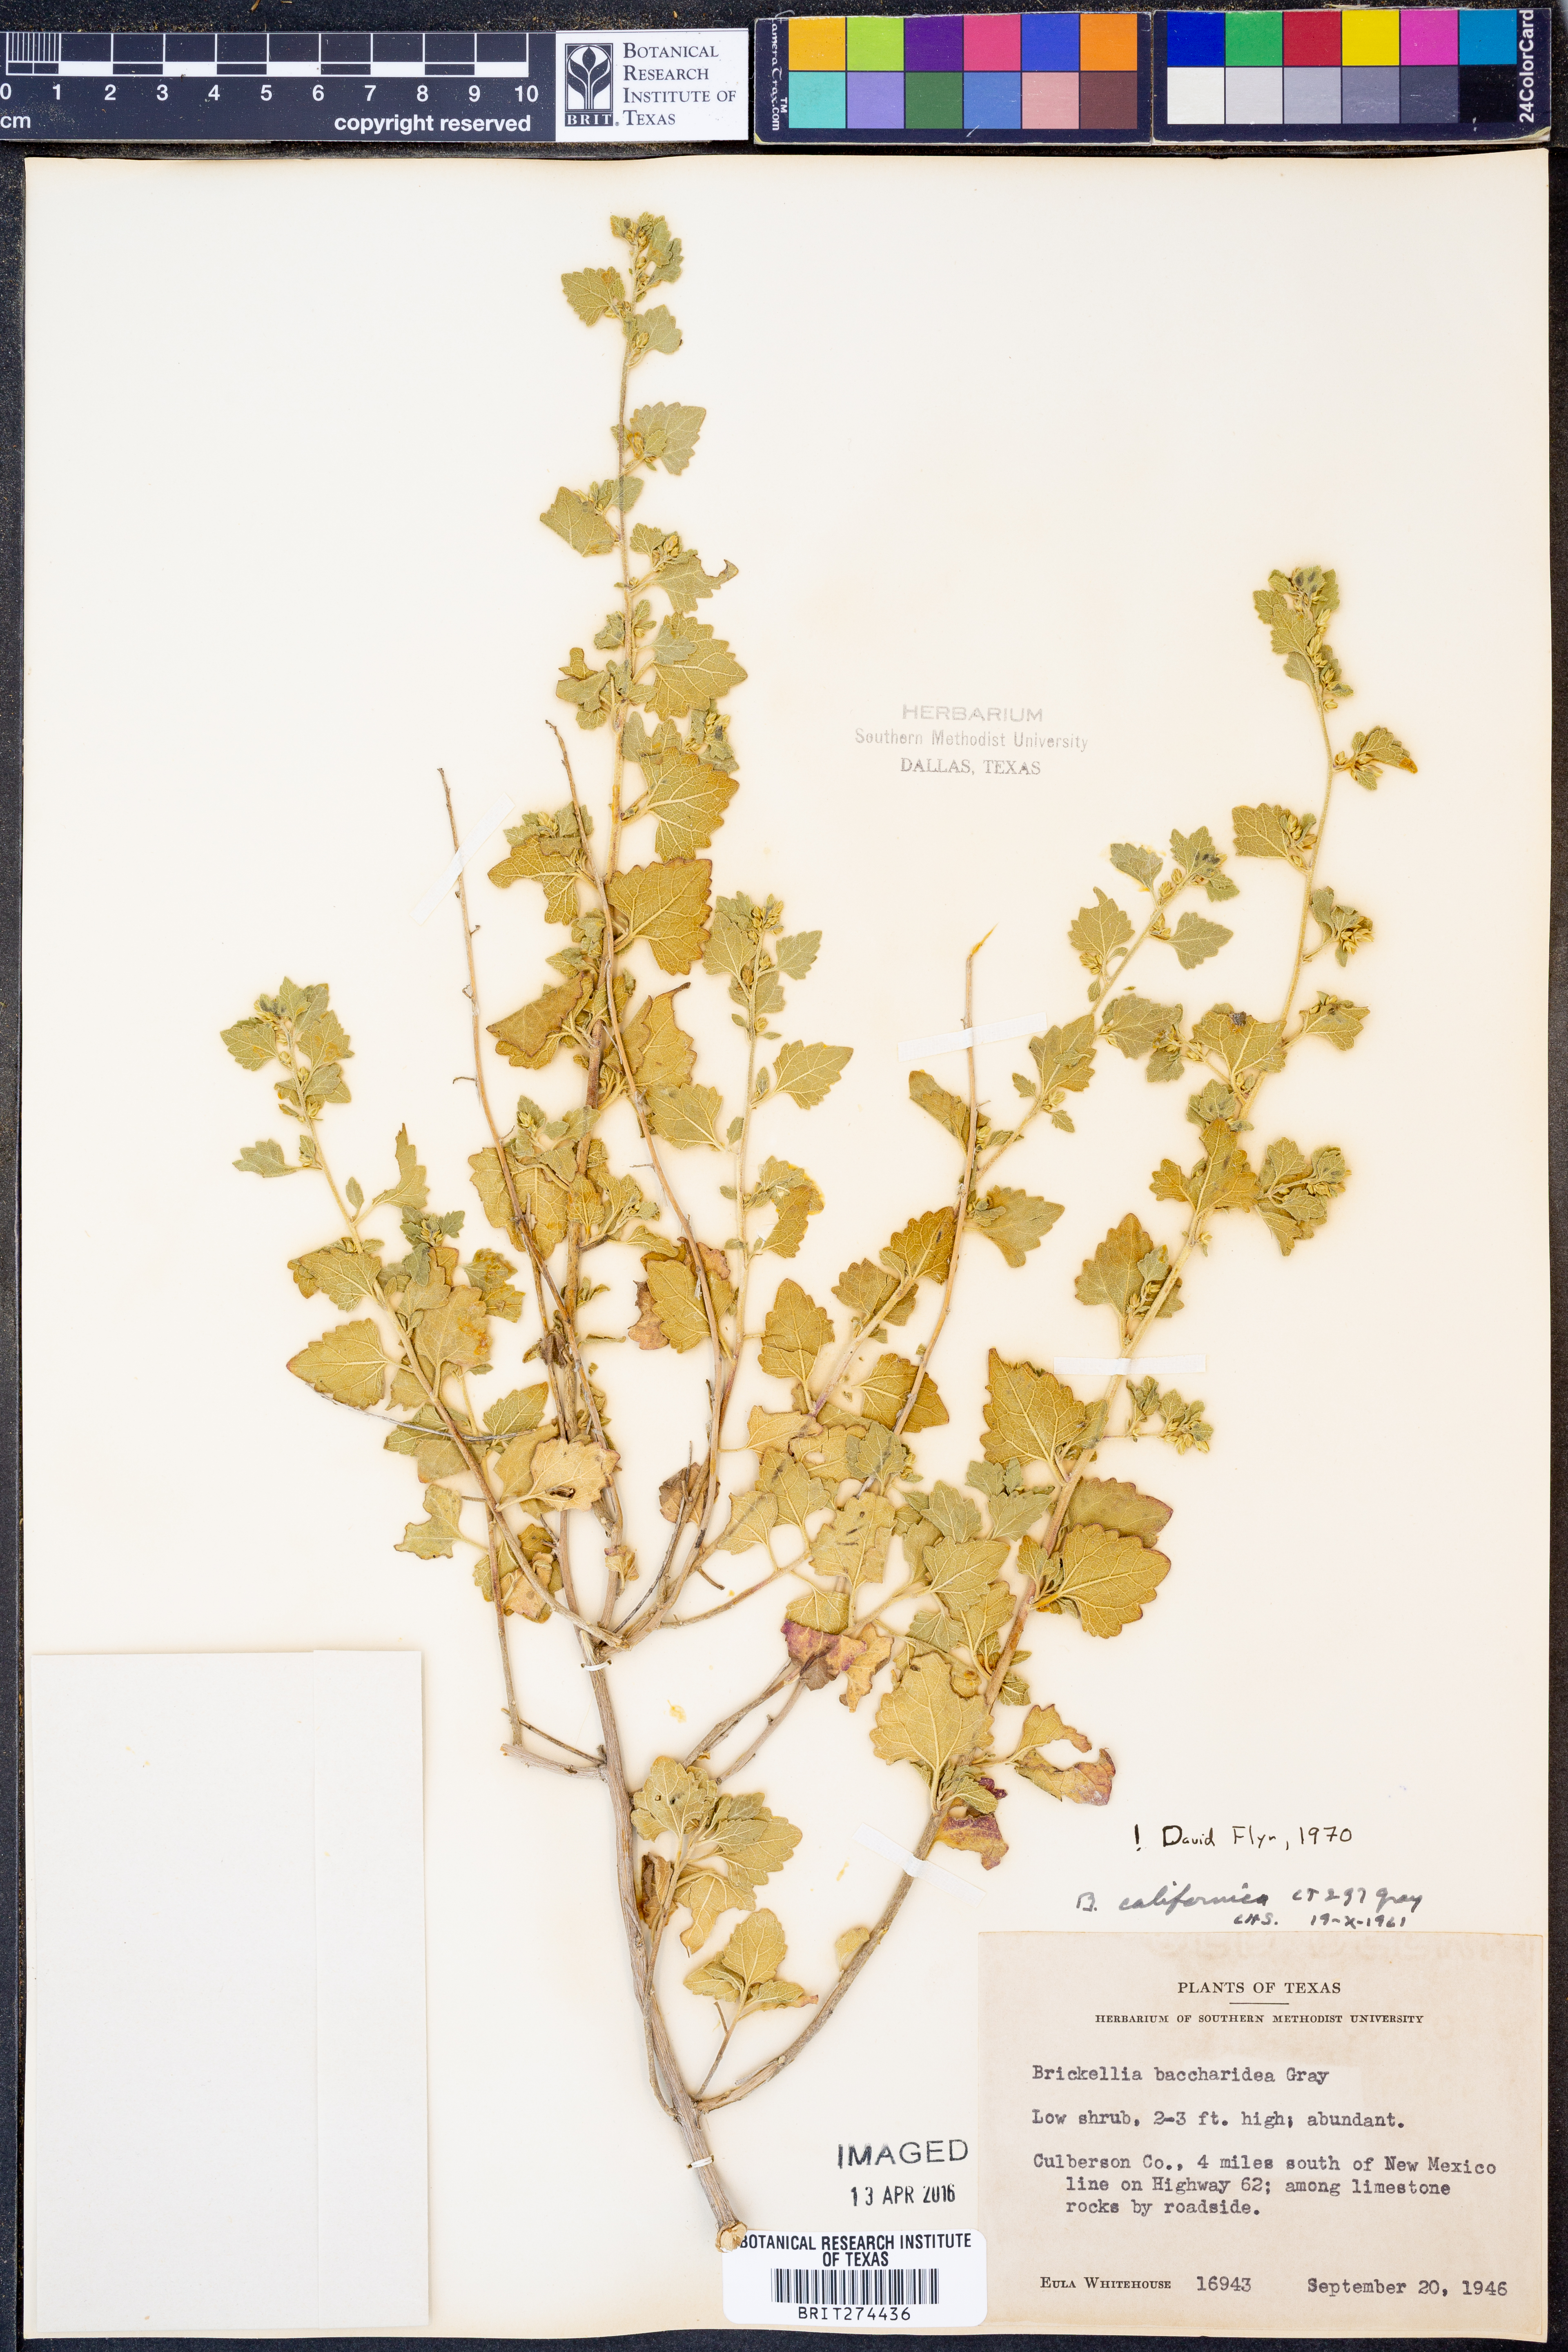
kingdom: Plantae
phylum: Tracheophyta
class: Magnoliopsida
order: Asterales
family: Asteraceae
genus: Brickellia
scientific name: Brickellia californica
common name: California brickellbush
